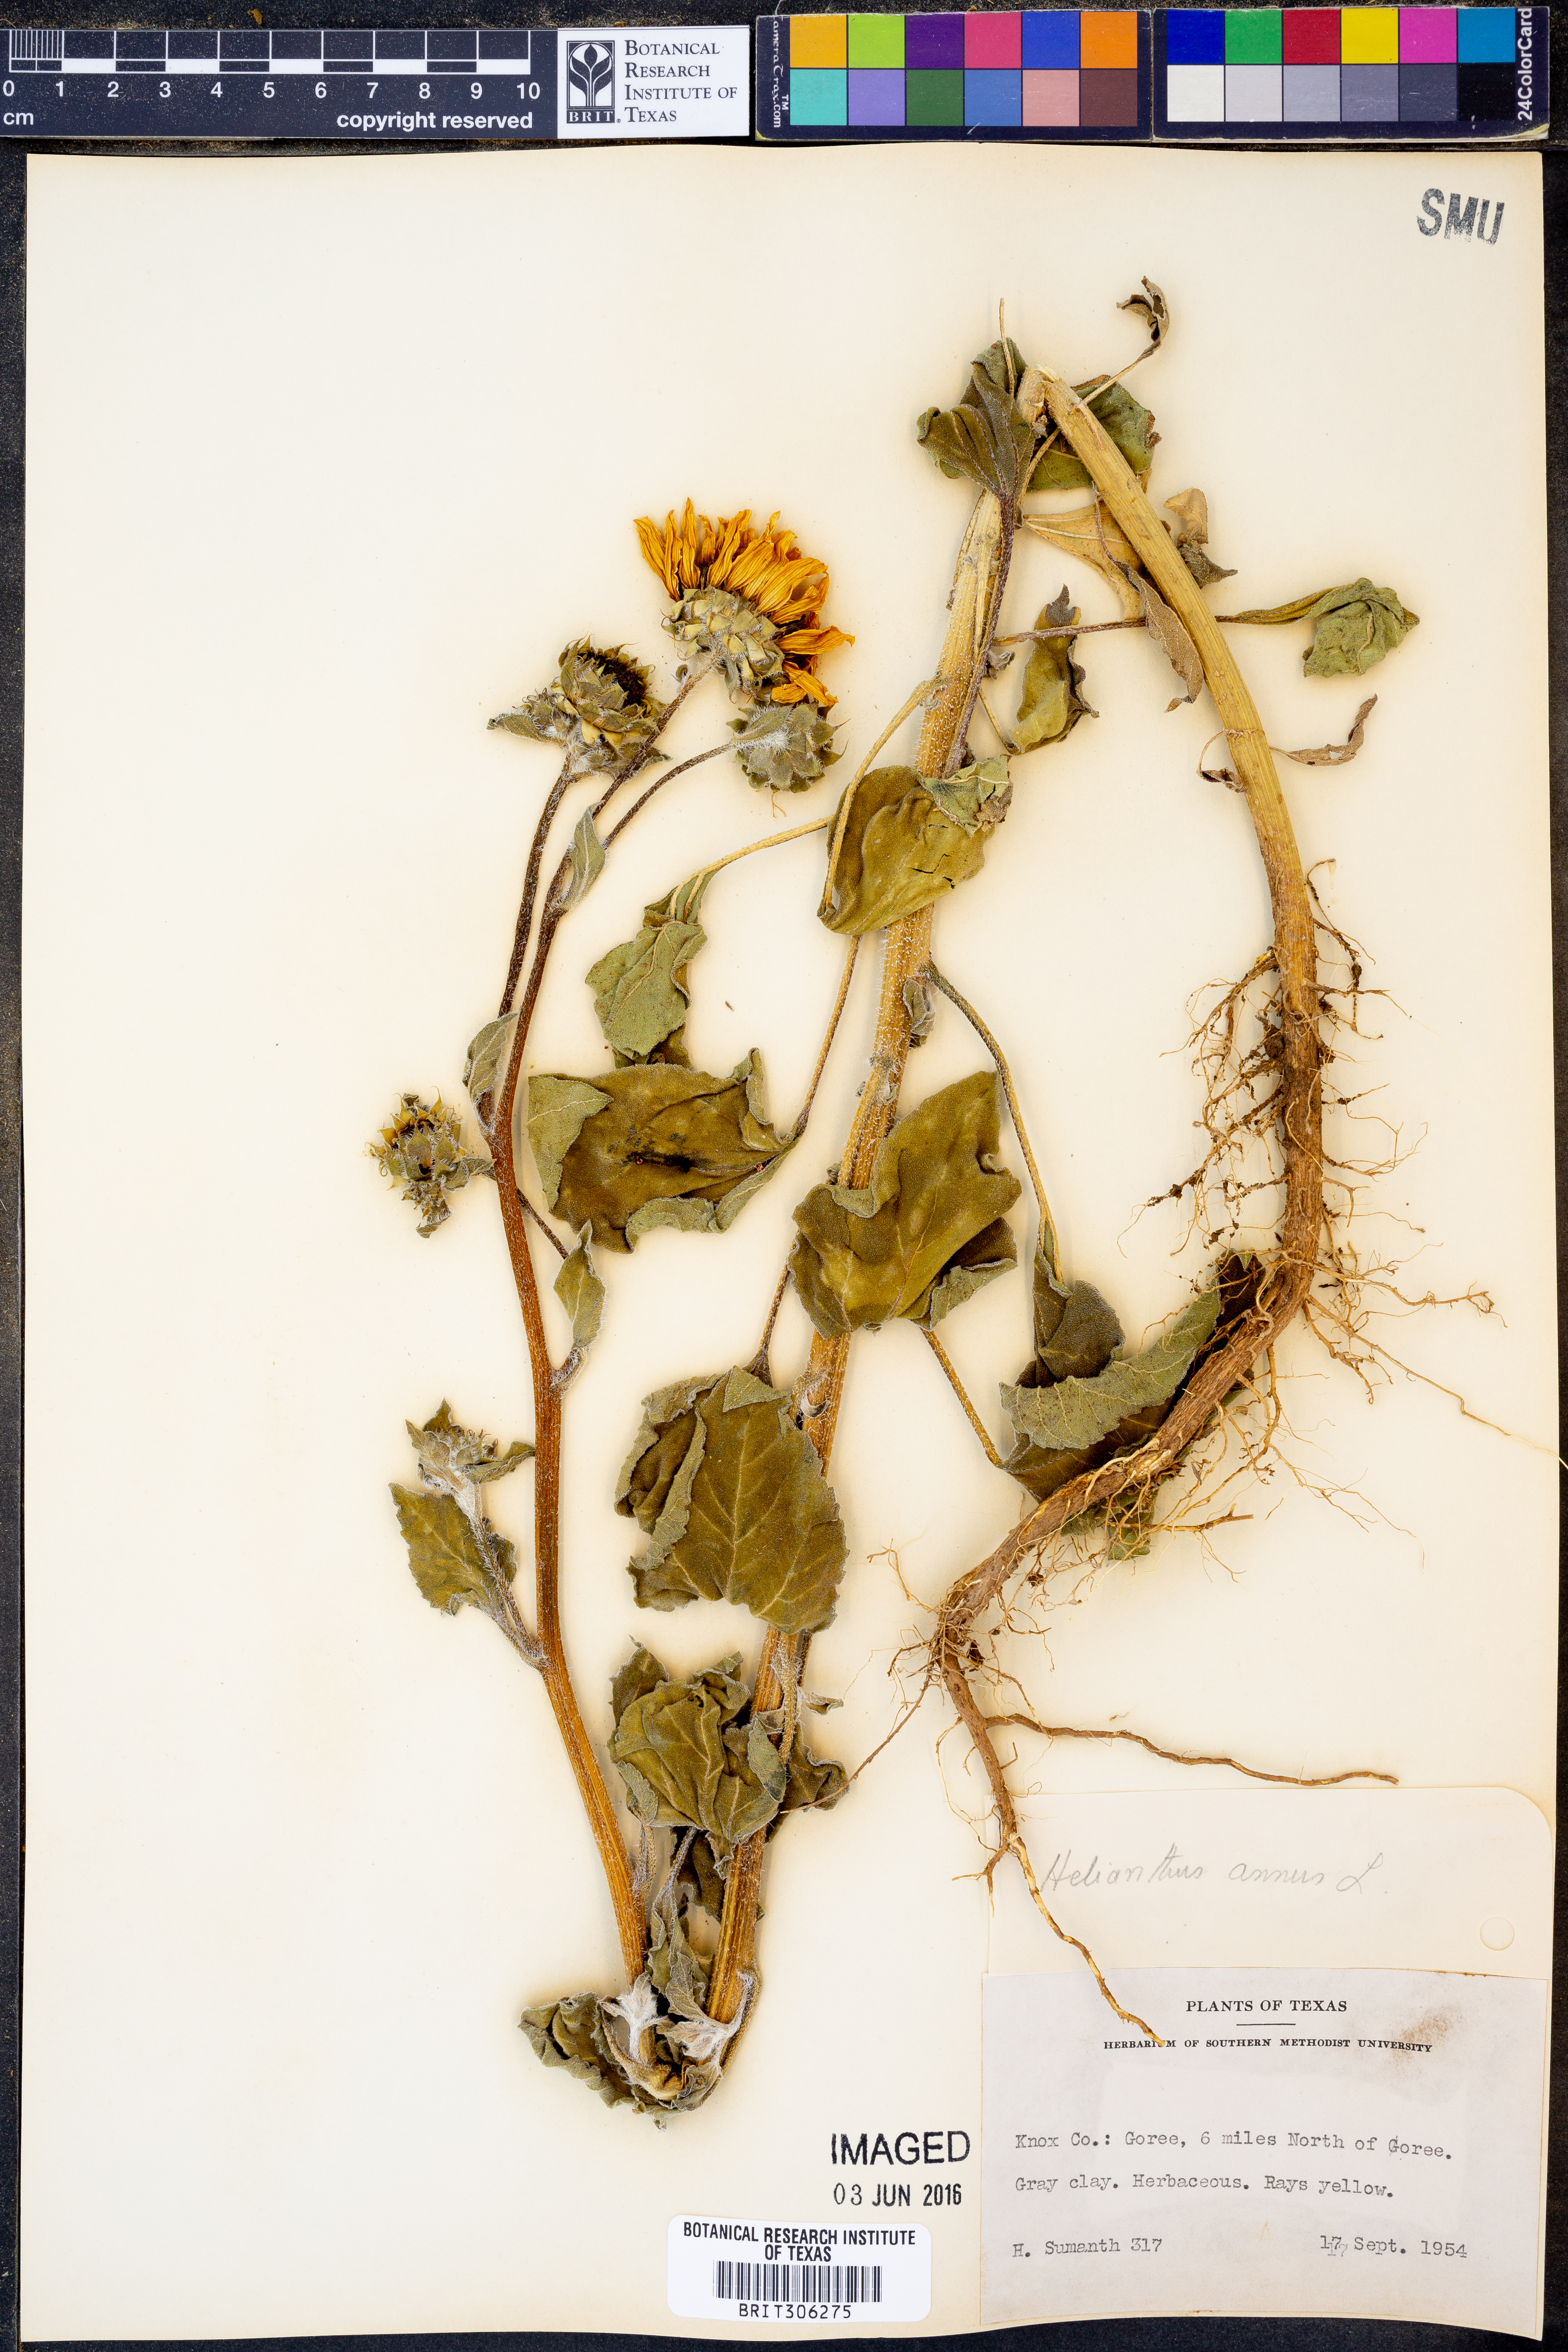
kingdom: Plantae
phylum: Tracheophyta
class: Magnoliopsida
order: Asterales
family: Asteraceae
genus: Helianthus
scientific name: Helianthus annuus
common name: Sunflower
